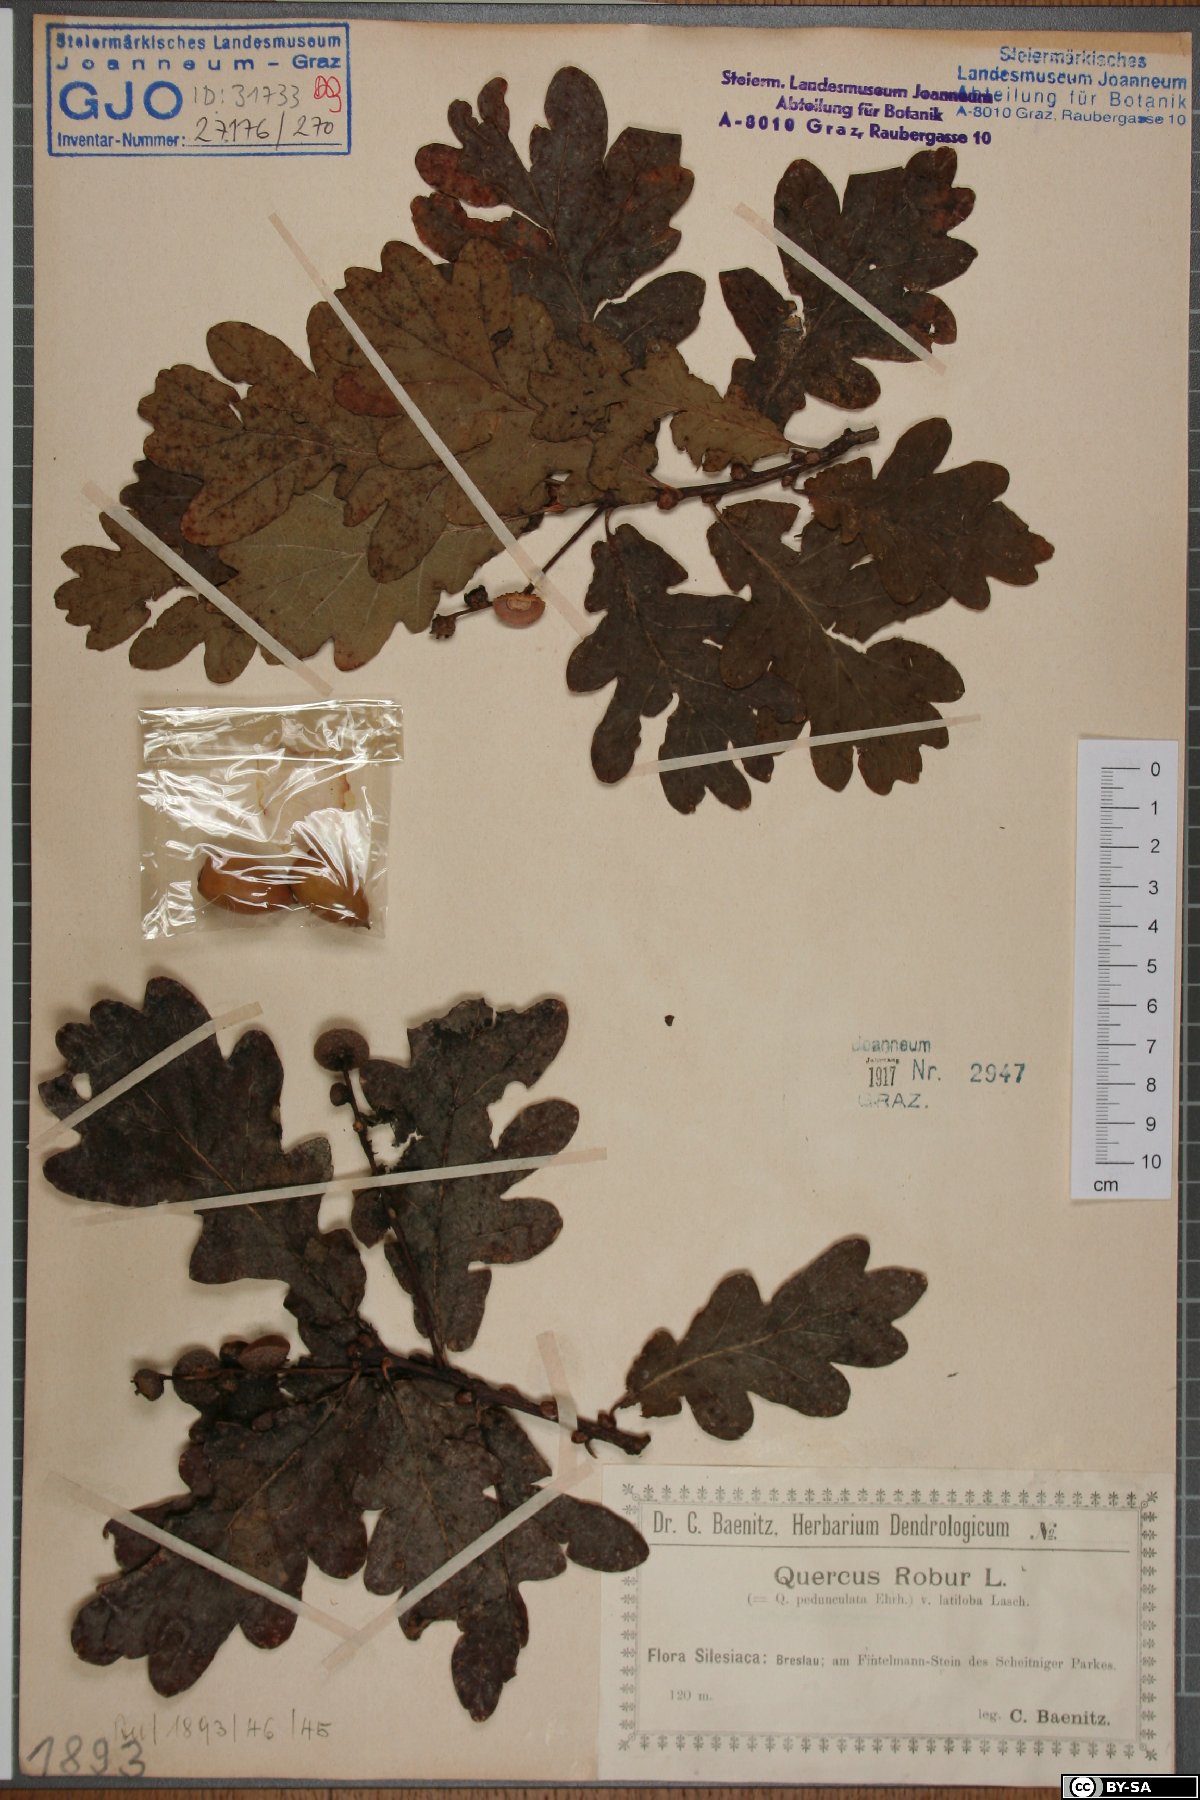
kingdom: Plantae
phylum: Tracheophyta
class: Magnoliopsida
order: Fagales
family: Fagaceae
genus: Quercus
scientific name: Quercus robur
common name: Pedunculate oak
